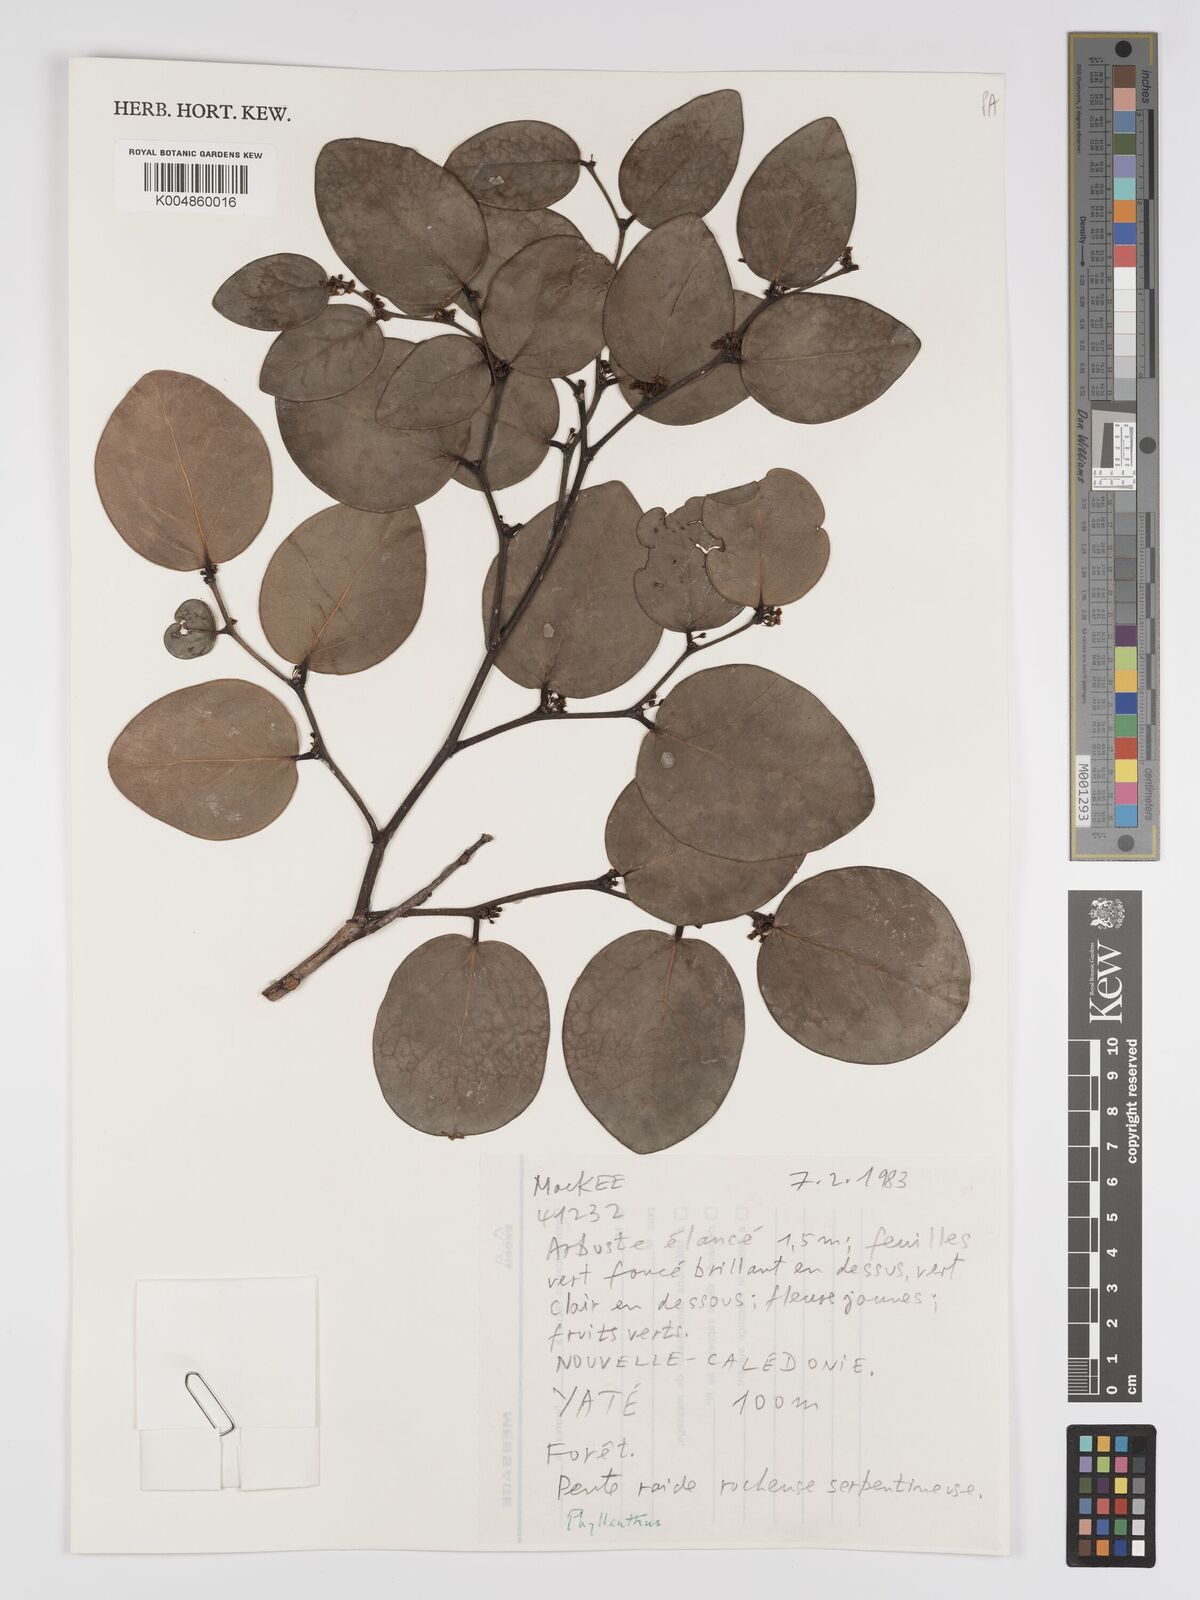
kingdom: Plantae
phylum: Tracheophyta
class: Magnoliopsida
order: Malpighiales
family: Phyllanthaceae
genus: Phyllanthus
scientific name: Phyllanthus
